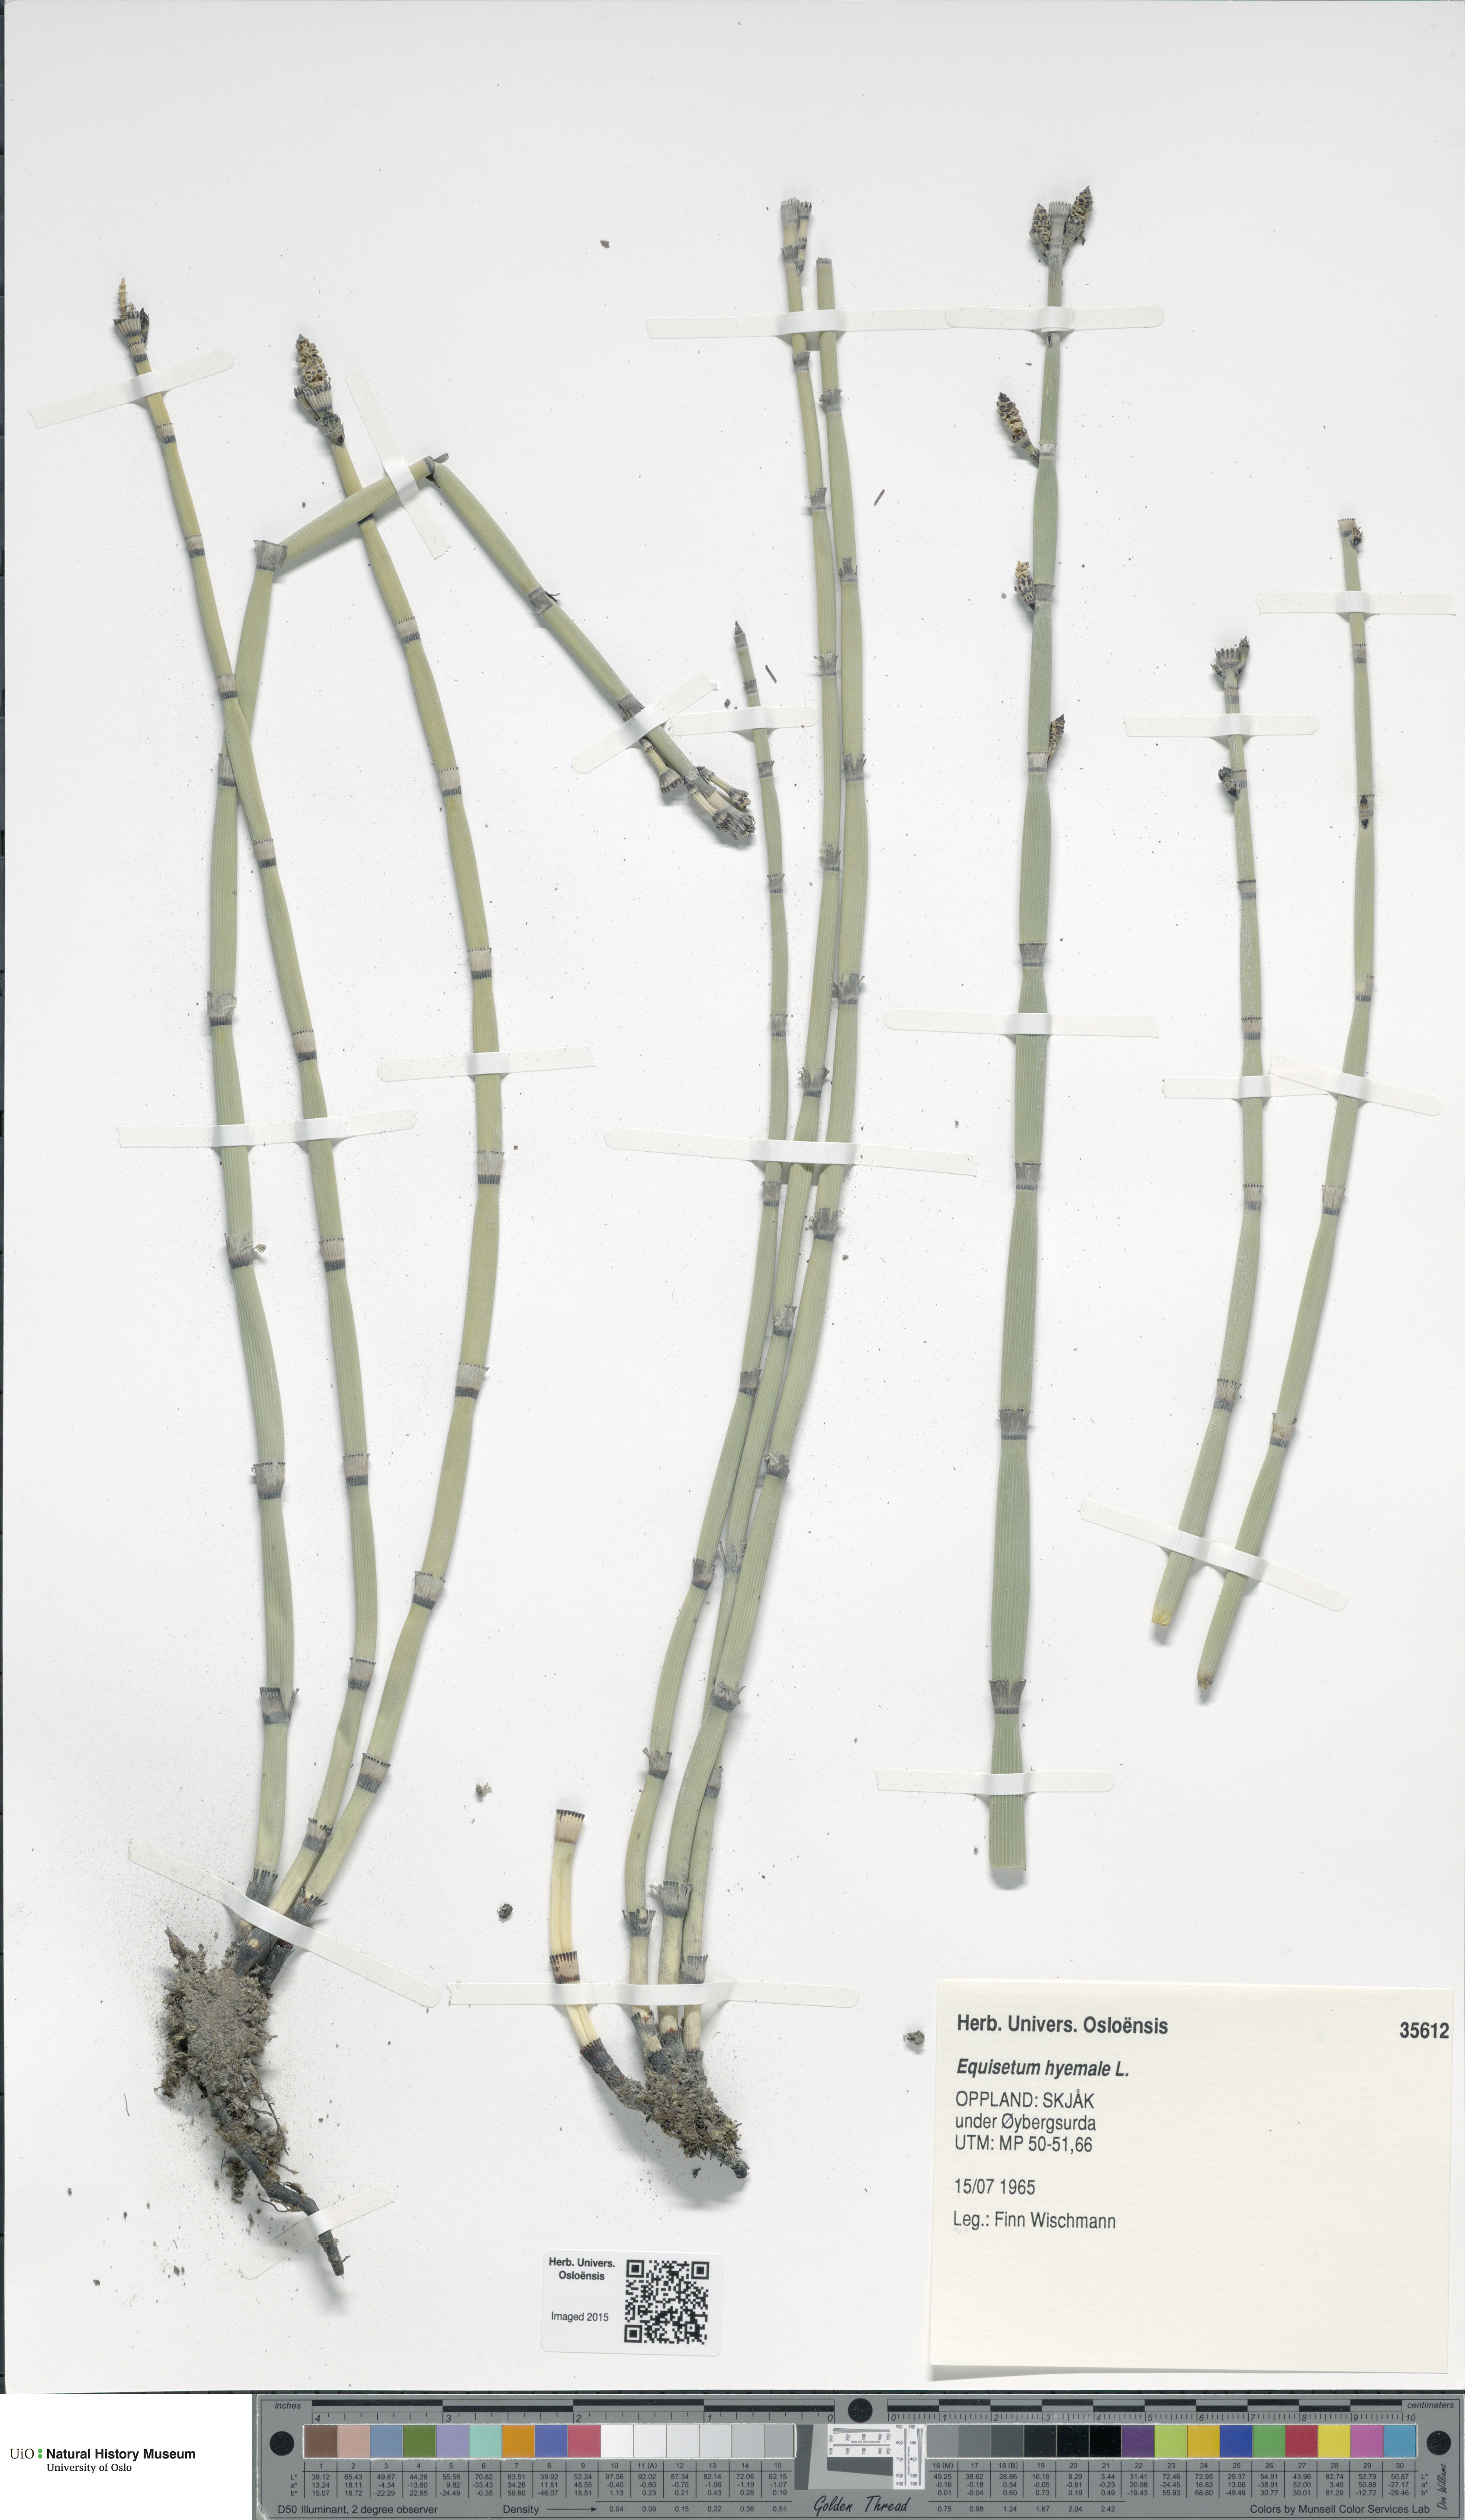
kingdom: Plantae
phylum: Tracheophyta
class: Polypodiopsida
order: Equisetales
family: Equisetaceae
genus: Equisetum
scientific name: Equisetum hyemale
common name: Rough horsetail
